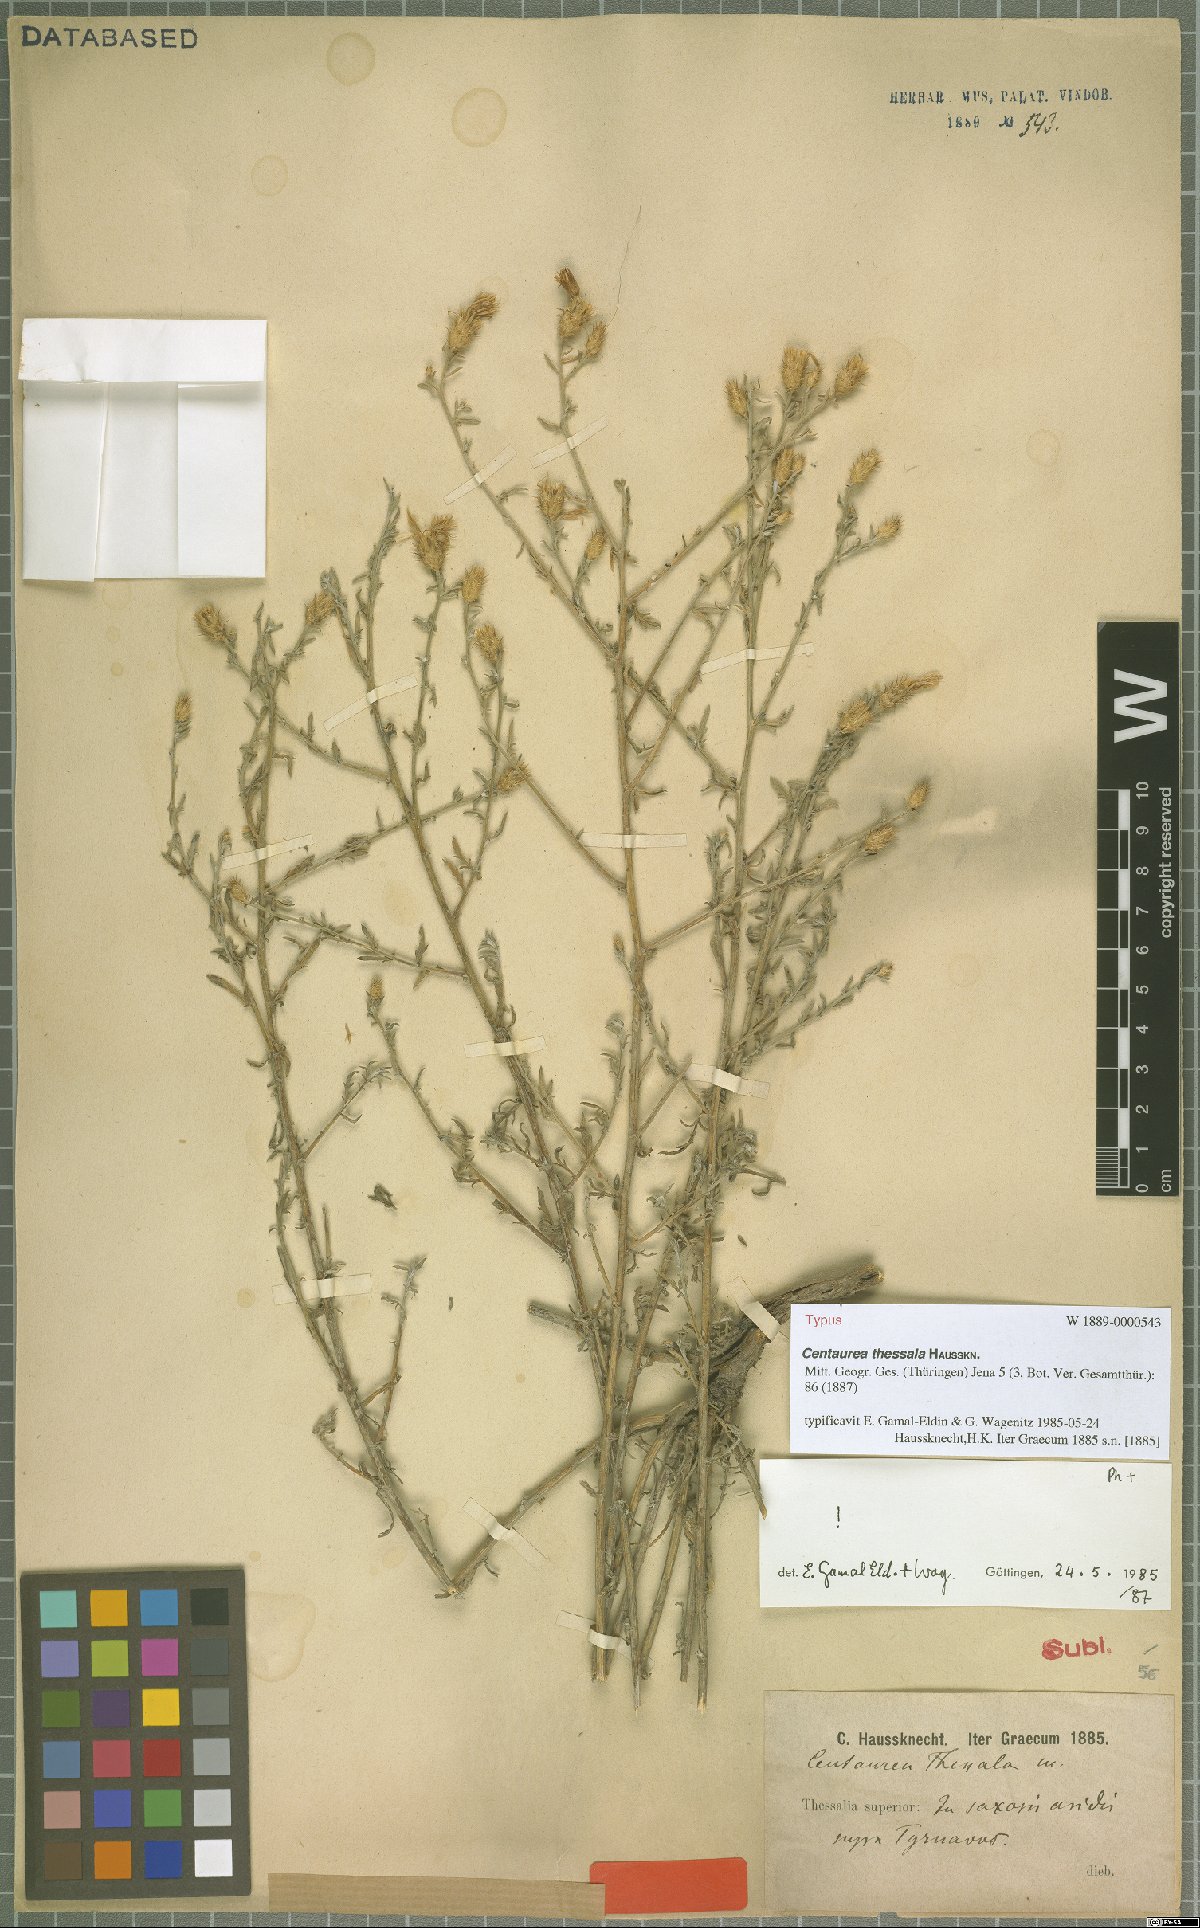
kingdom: Plantae
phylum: Tracheophyta
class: Magnoliopsida
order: Asterales
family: Asteraceae
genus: Centaurea
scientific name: Centaurea thessala
